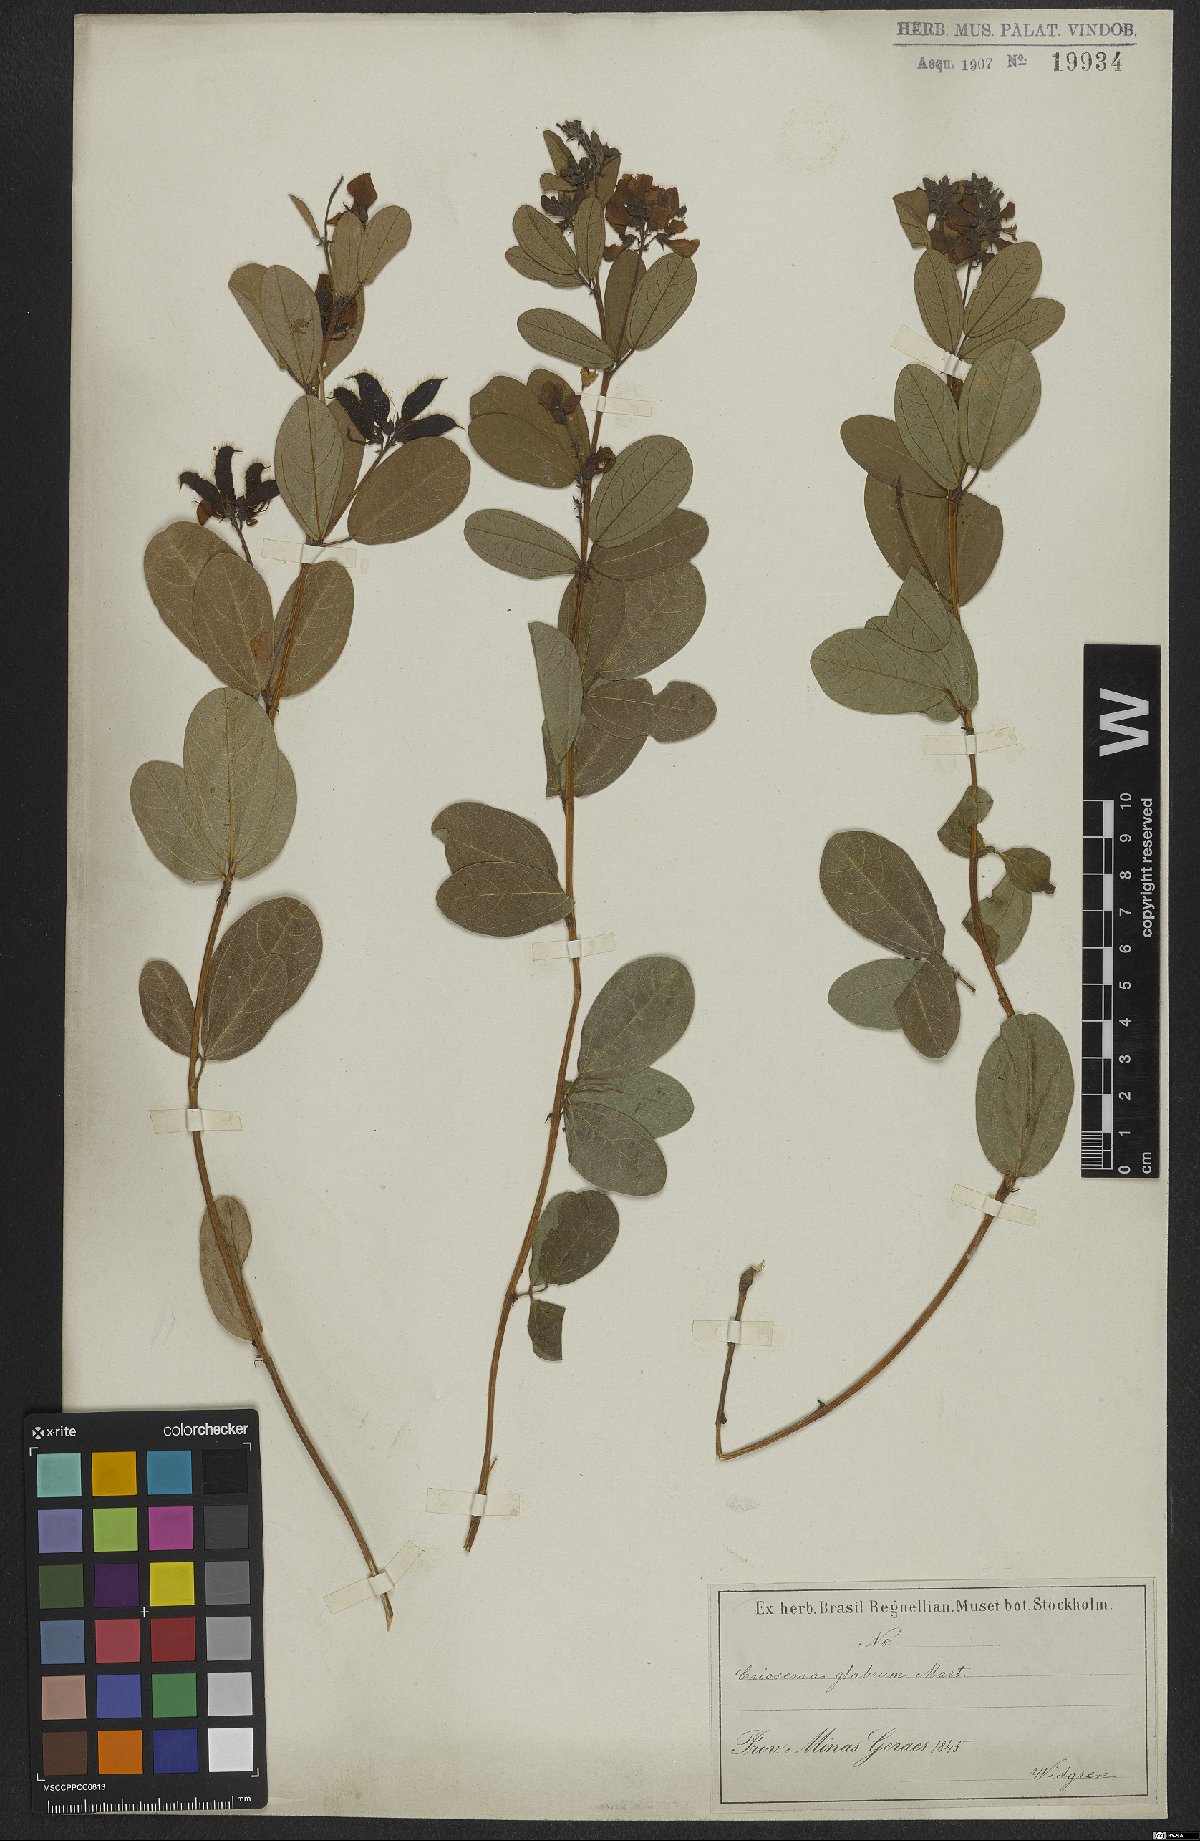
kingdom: Plantae
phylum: Tracheophyta
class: Magnoliopsida
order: Fabales
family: Fabaceae
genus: Eriosema
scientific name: Eriosema glabrum
